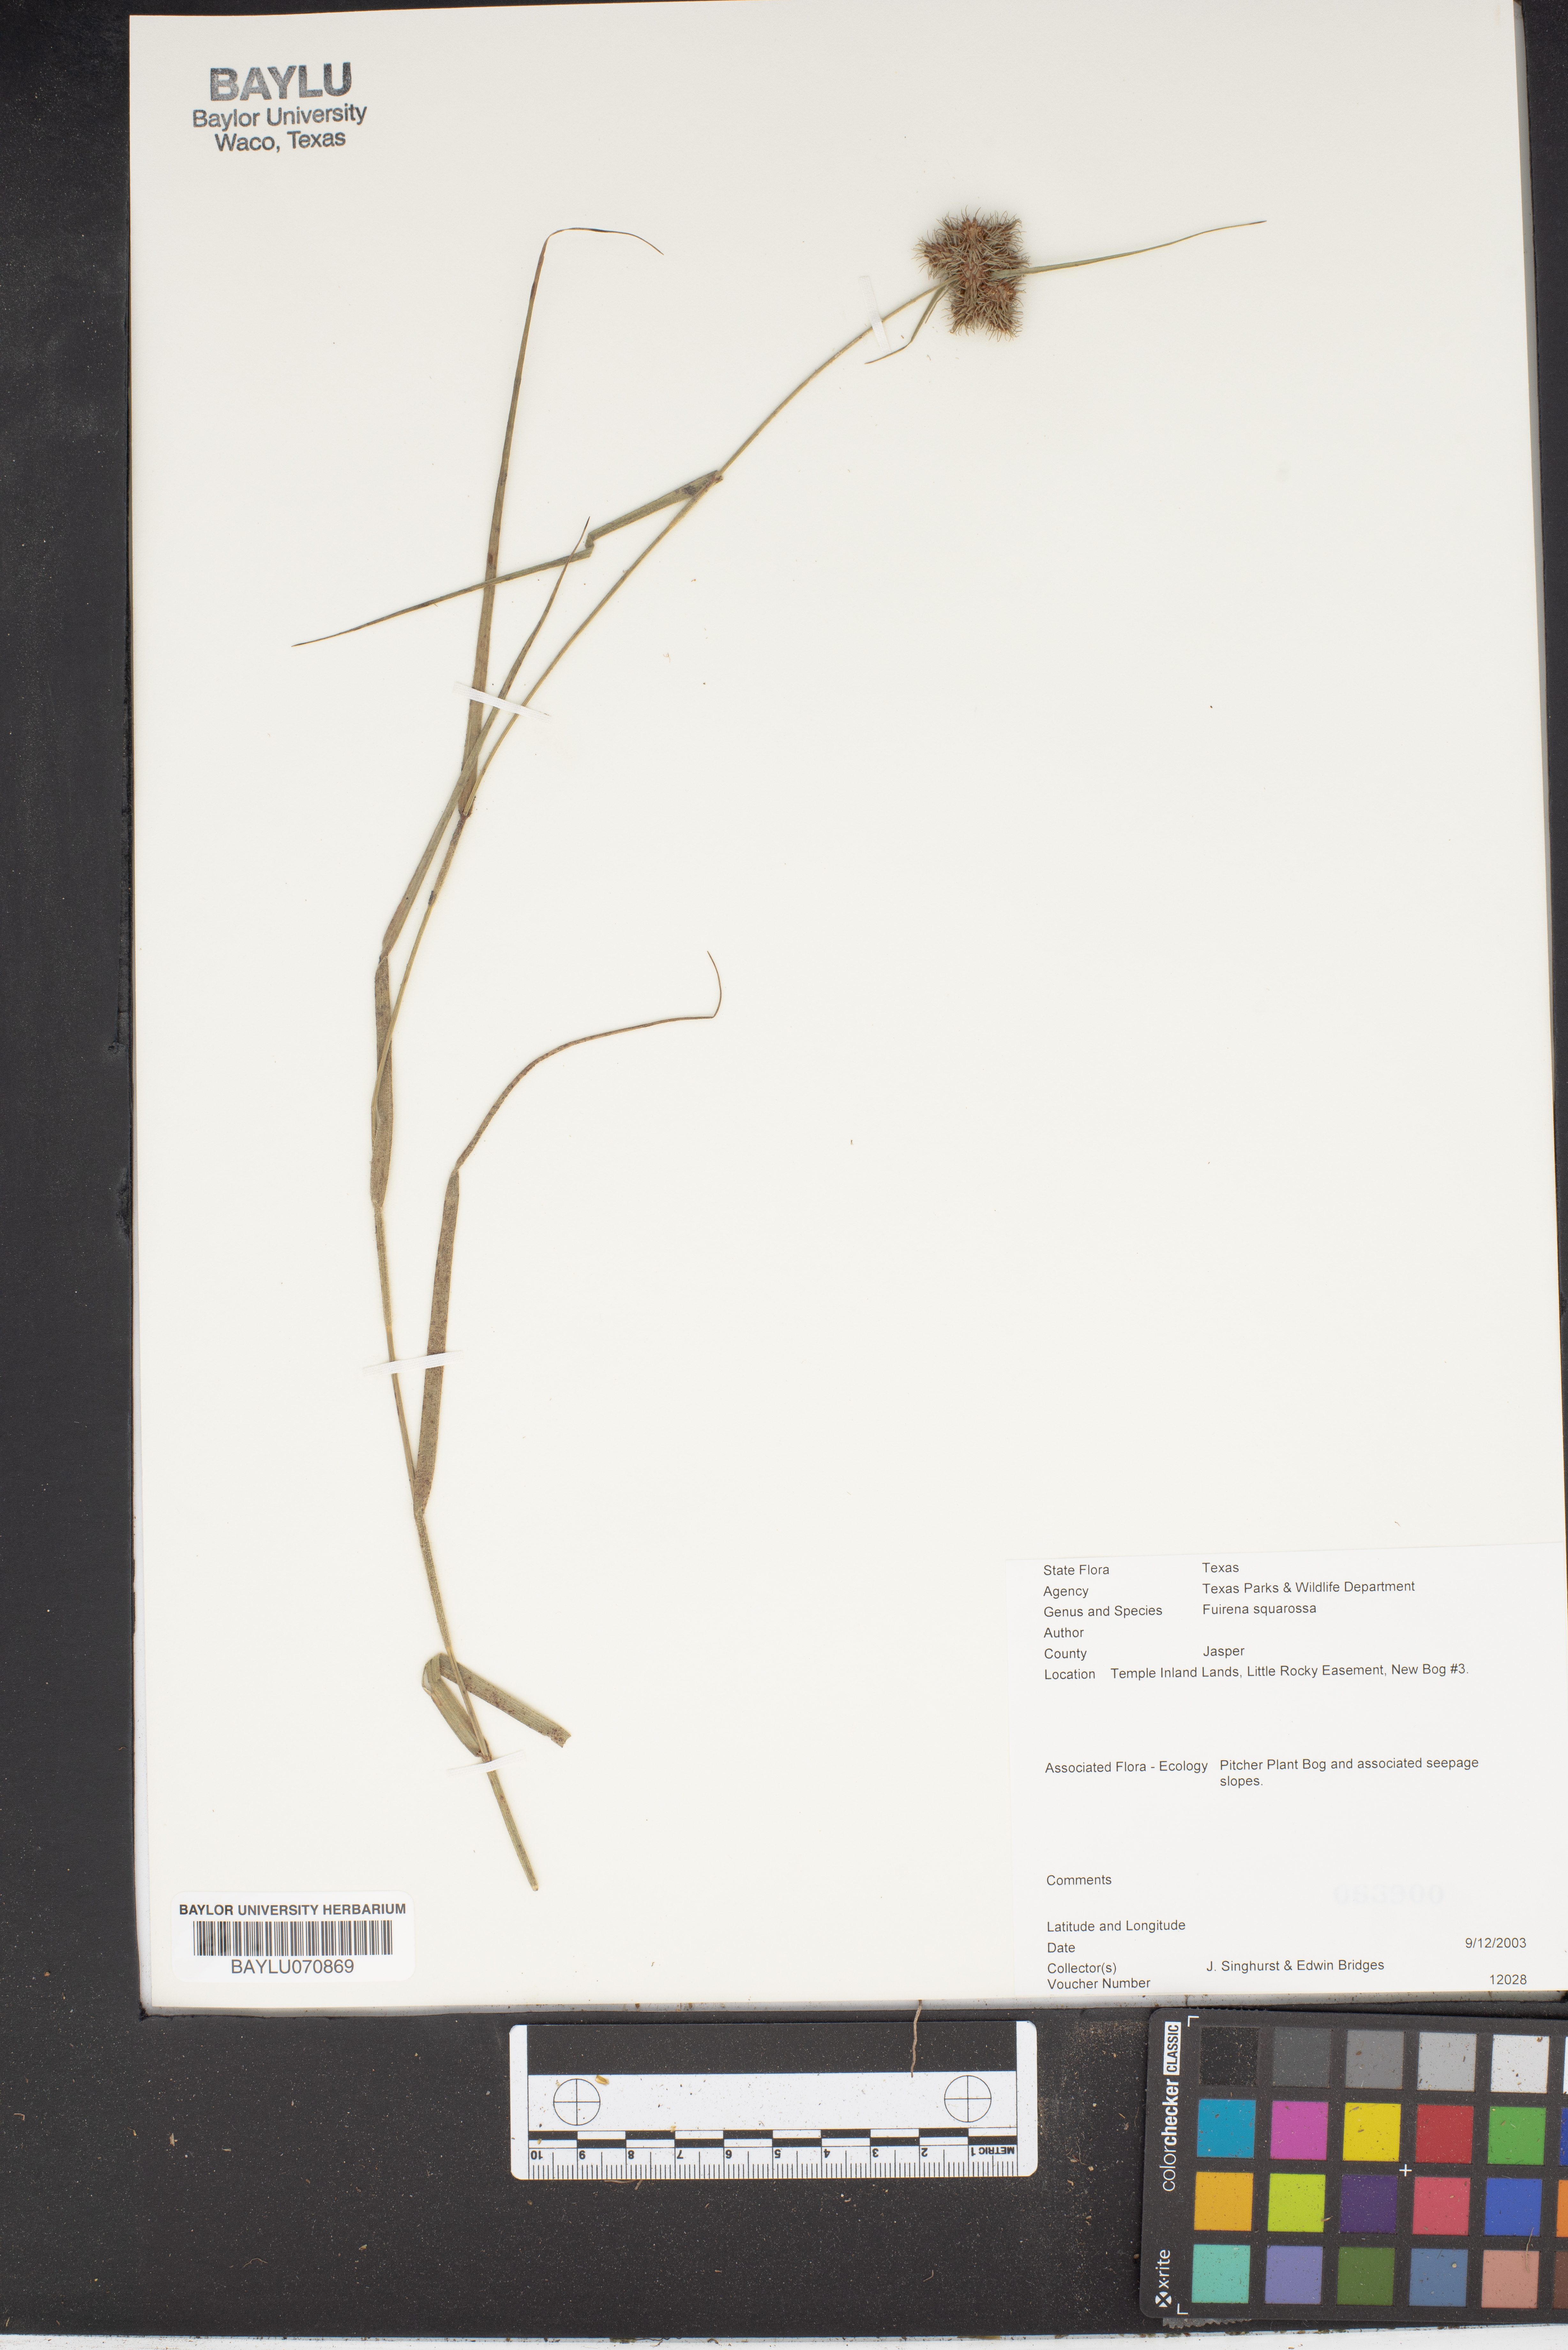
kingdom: Plantae
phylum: Tracheophyta
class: Liliopsida
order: Poales
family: Cyperaceae
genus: Fuirena
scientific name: Fuirena squarrosa
